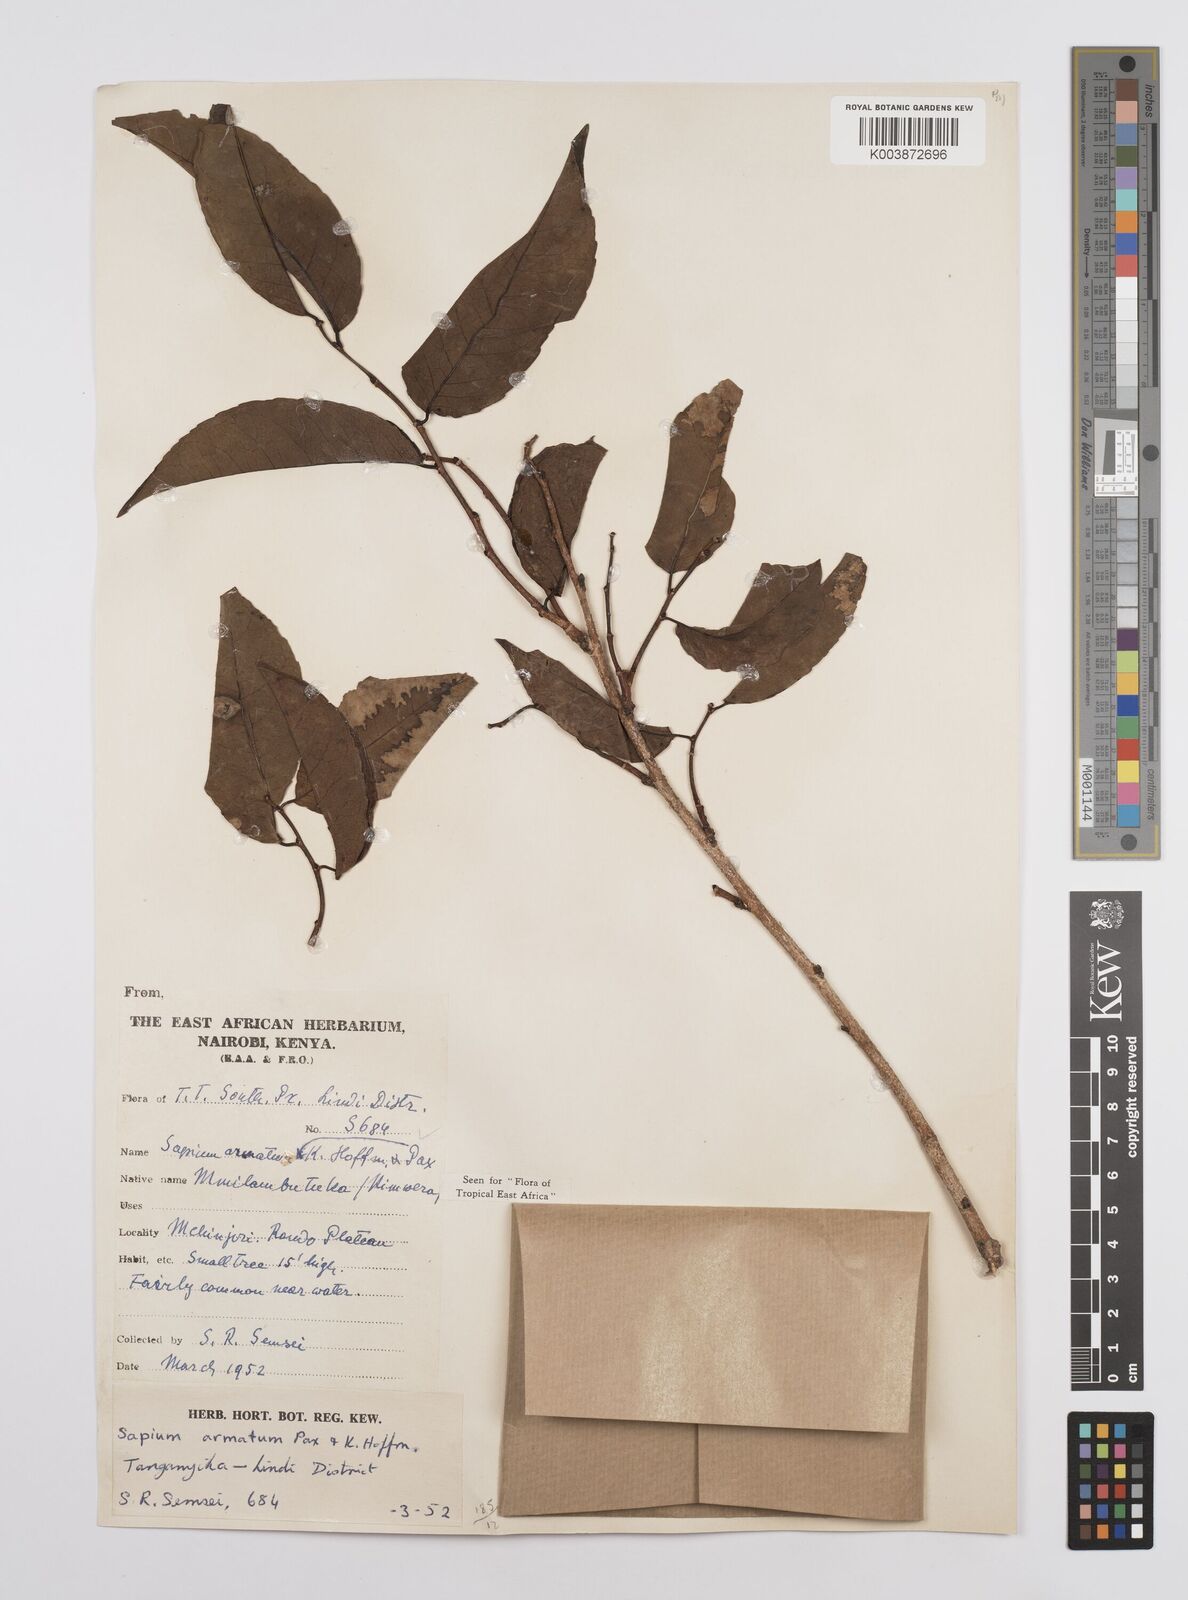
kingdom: Plantae
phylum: Tracheophyta
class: Magnoliopsida
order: Malpighiales
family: Euphorbiaceae
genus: Sclerocroton
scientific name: Sclerocroton integerrimus
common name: Duiker berry
